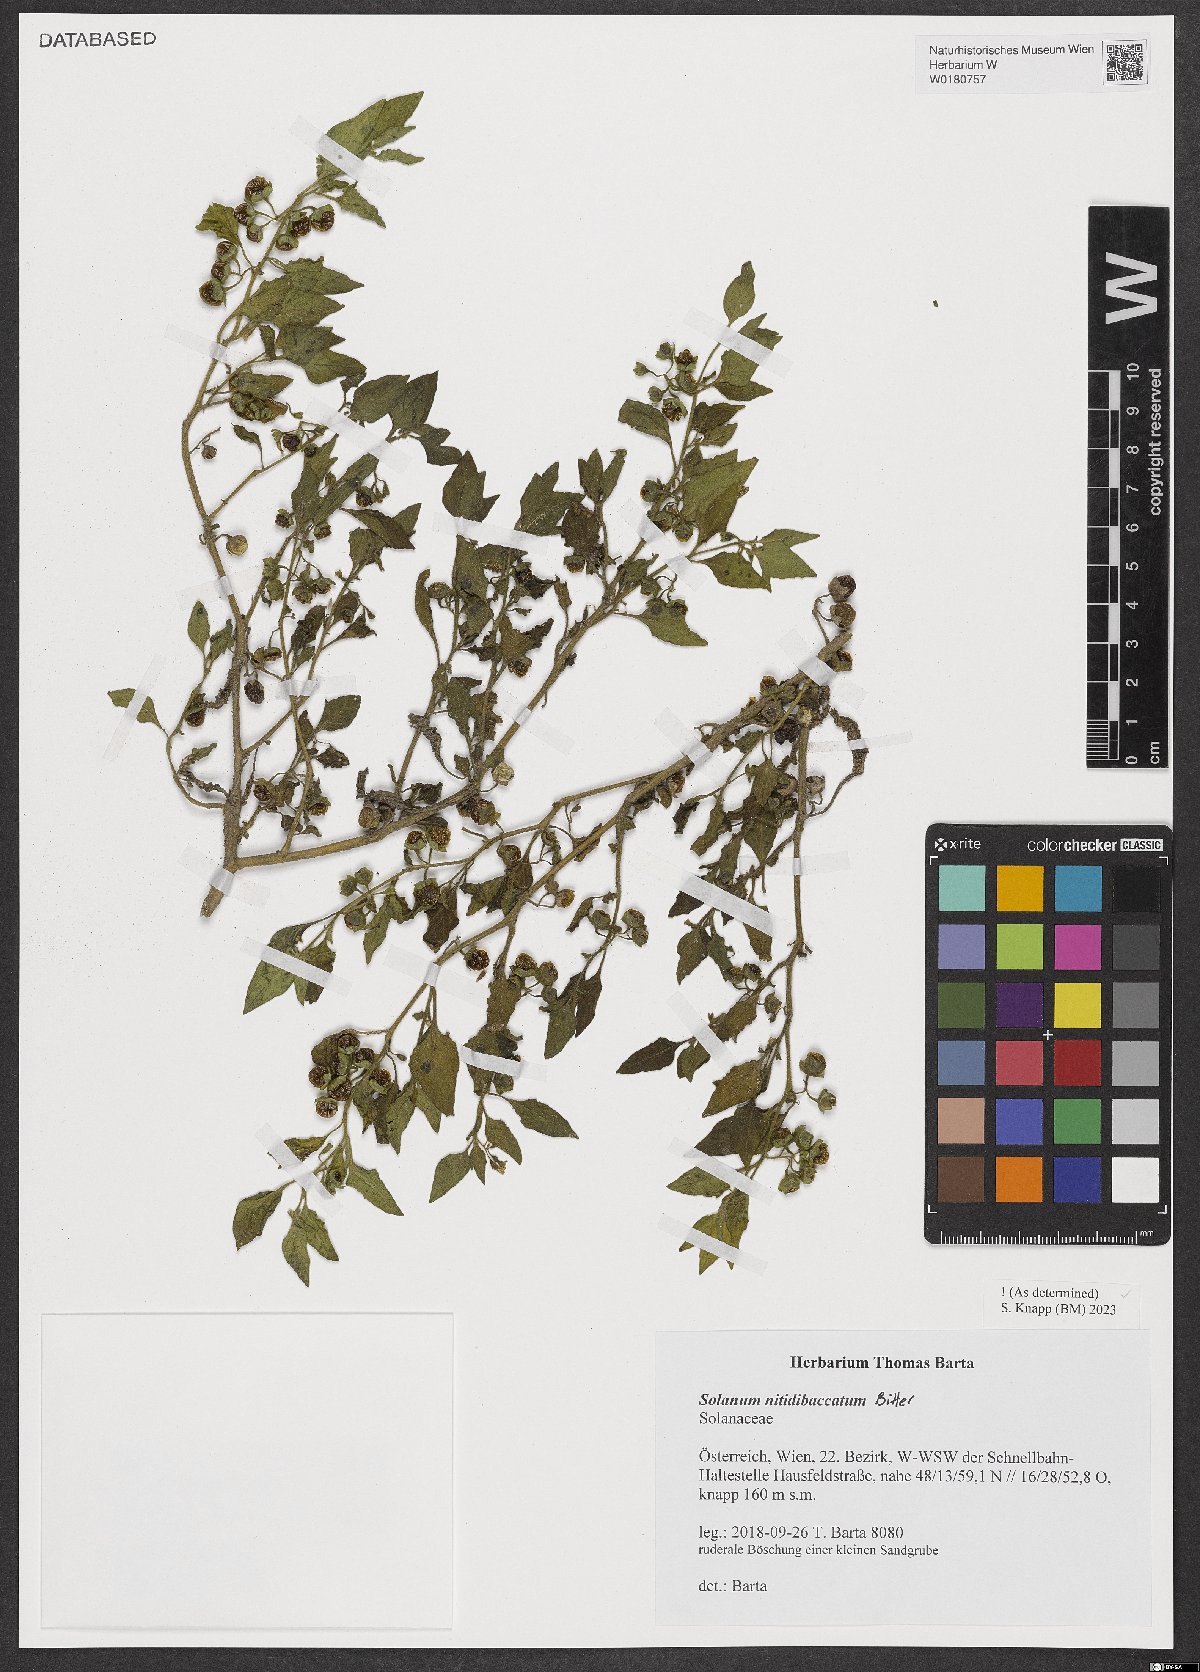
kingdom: Plantae
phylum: Tracheophyta
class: Magnoliopsida
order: Solanales
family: Solanaceae
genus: Solanum
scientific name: Solanum nitidibaccatum
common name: Hairy nightshade
